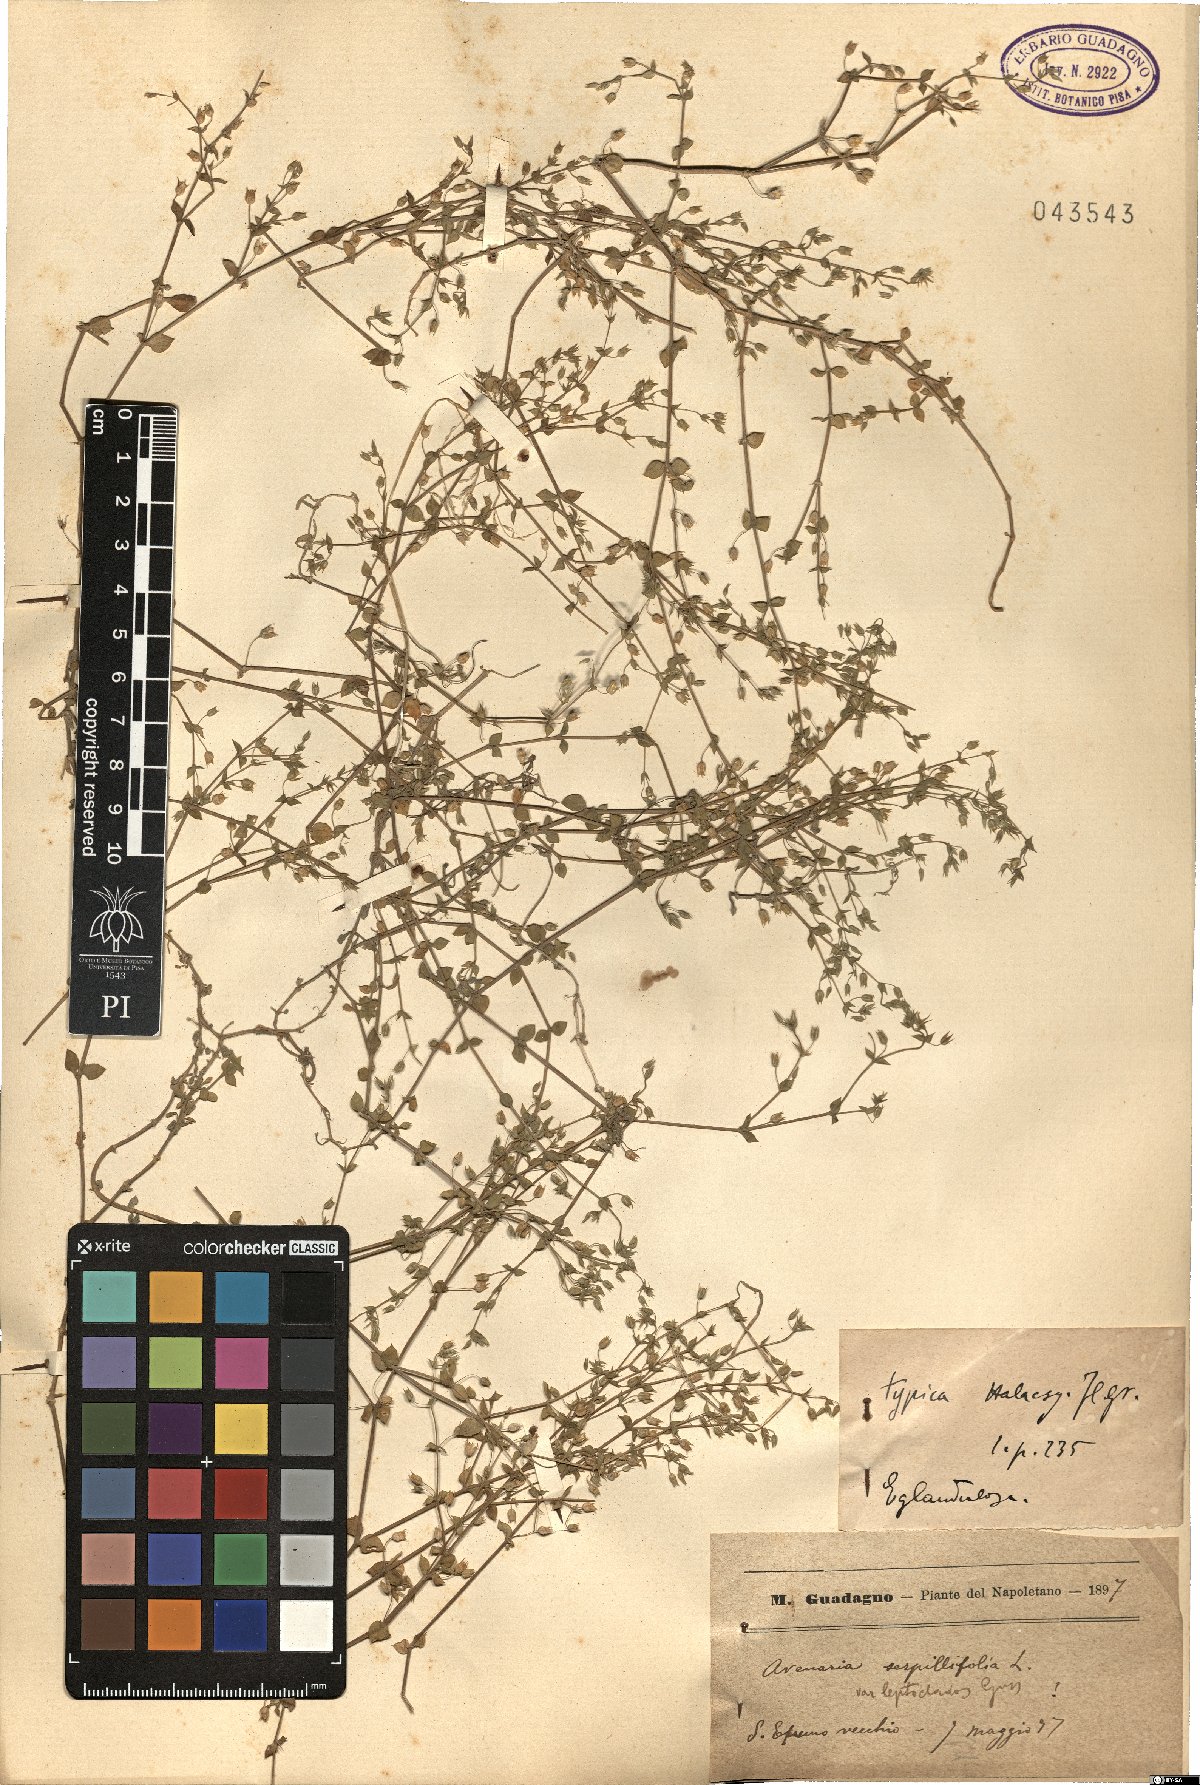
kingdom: Plantae
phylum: Tracheophyta
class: Magnoliopsida
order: Caryophyllales
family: Caryophyllaceae
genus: Arenaria
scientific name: Arenaria leptoclados
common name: Thyme-leaved sandwort
